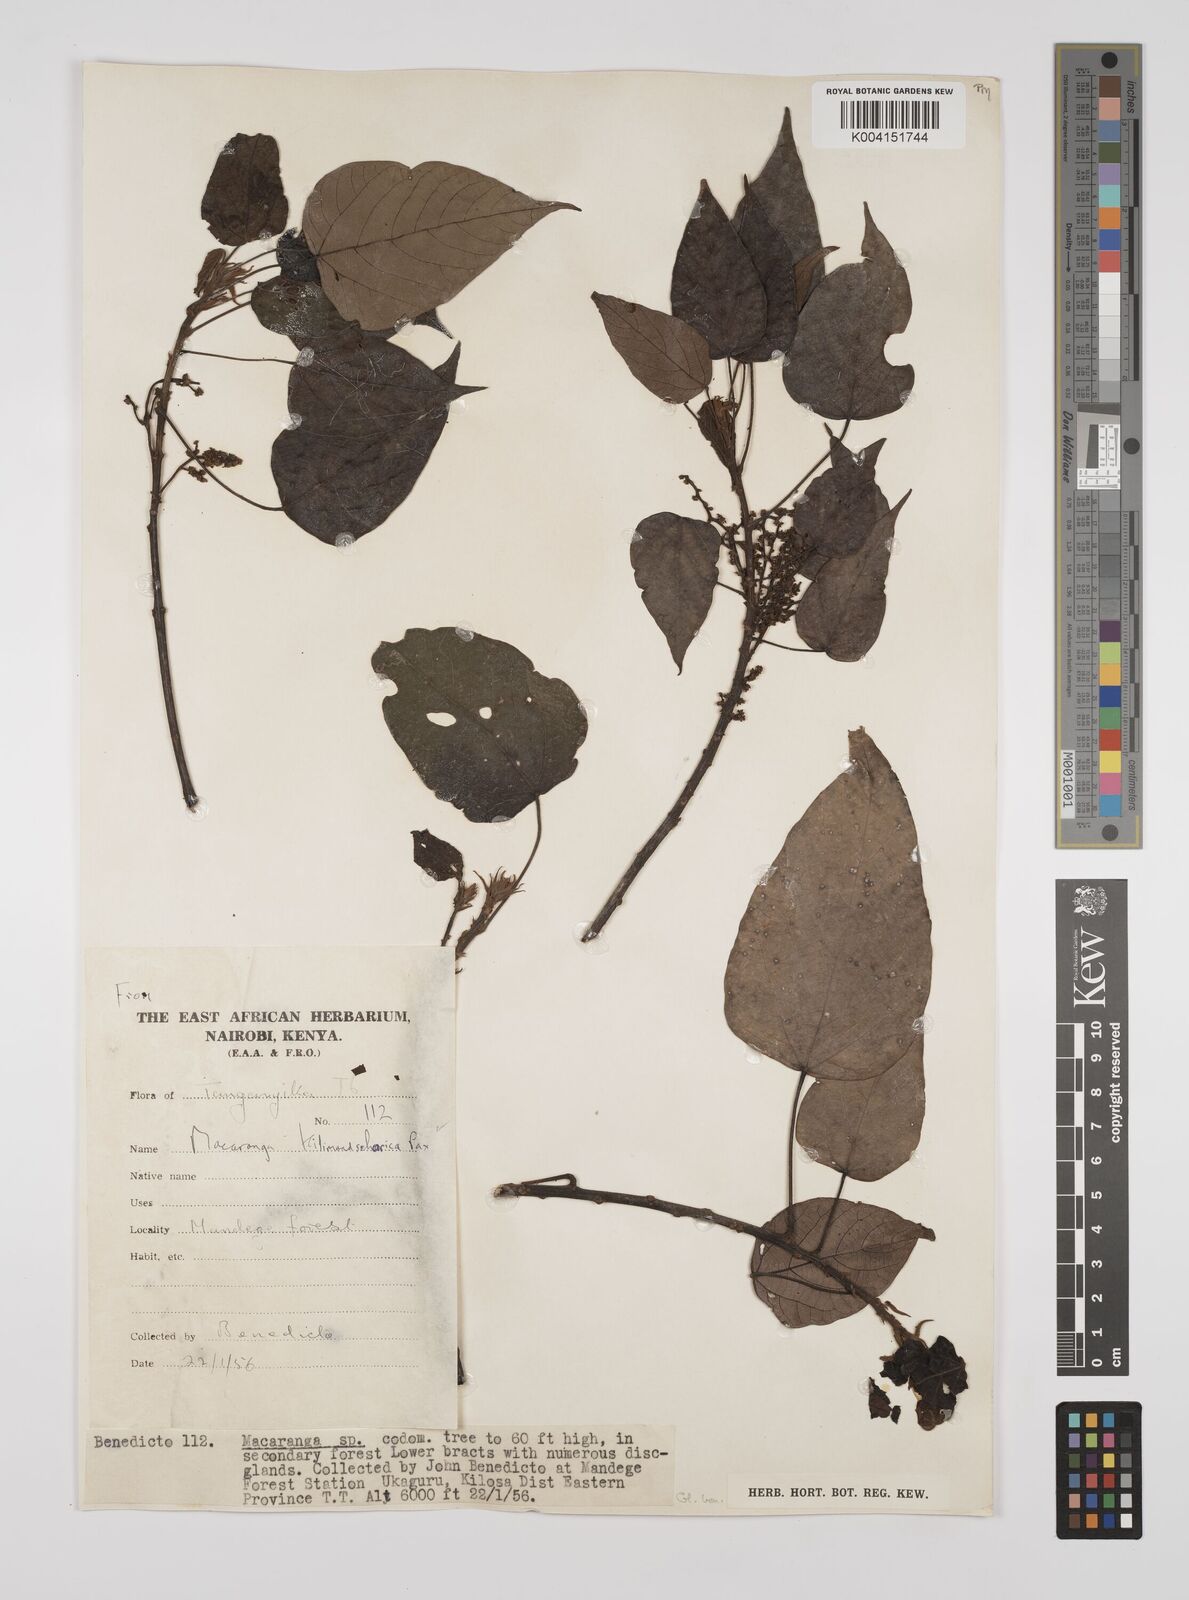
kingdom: Plantae
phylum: Tracheophyta
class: Magnoliopsida
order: Malpighiales
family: Euphorbiaceae
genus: Macaranga
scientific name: Macaranga kilimandscharica
